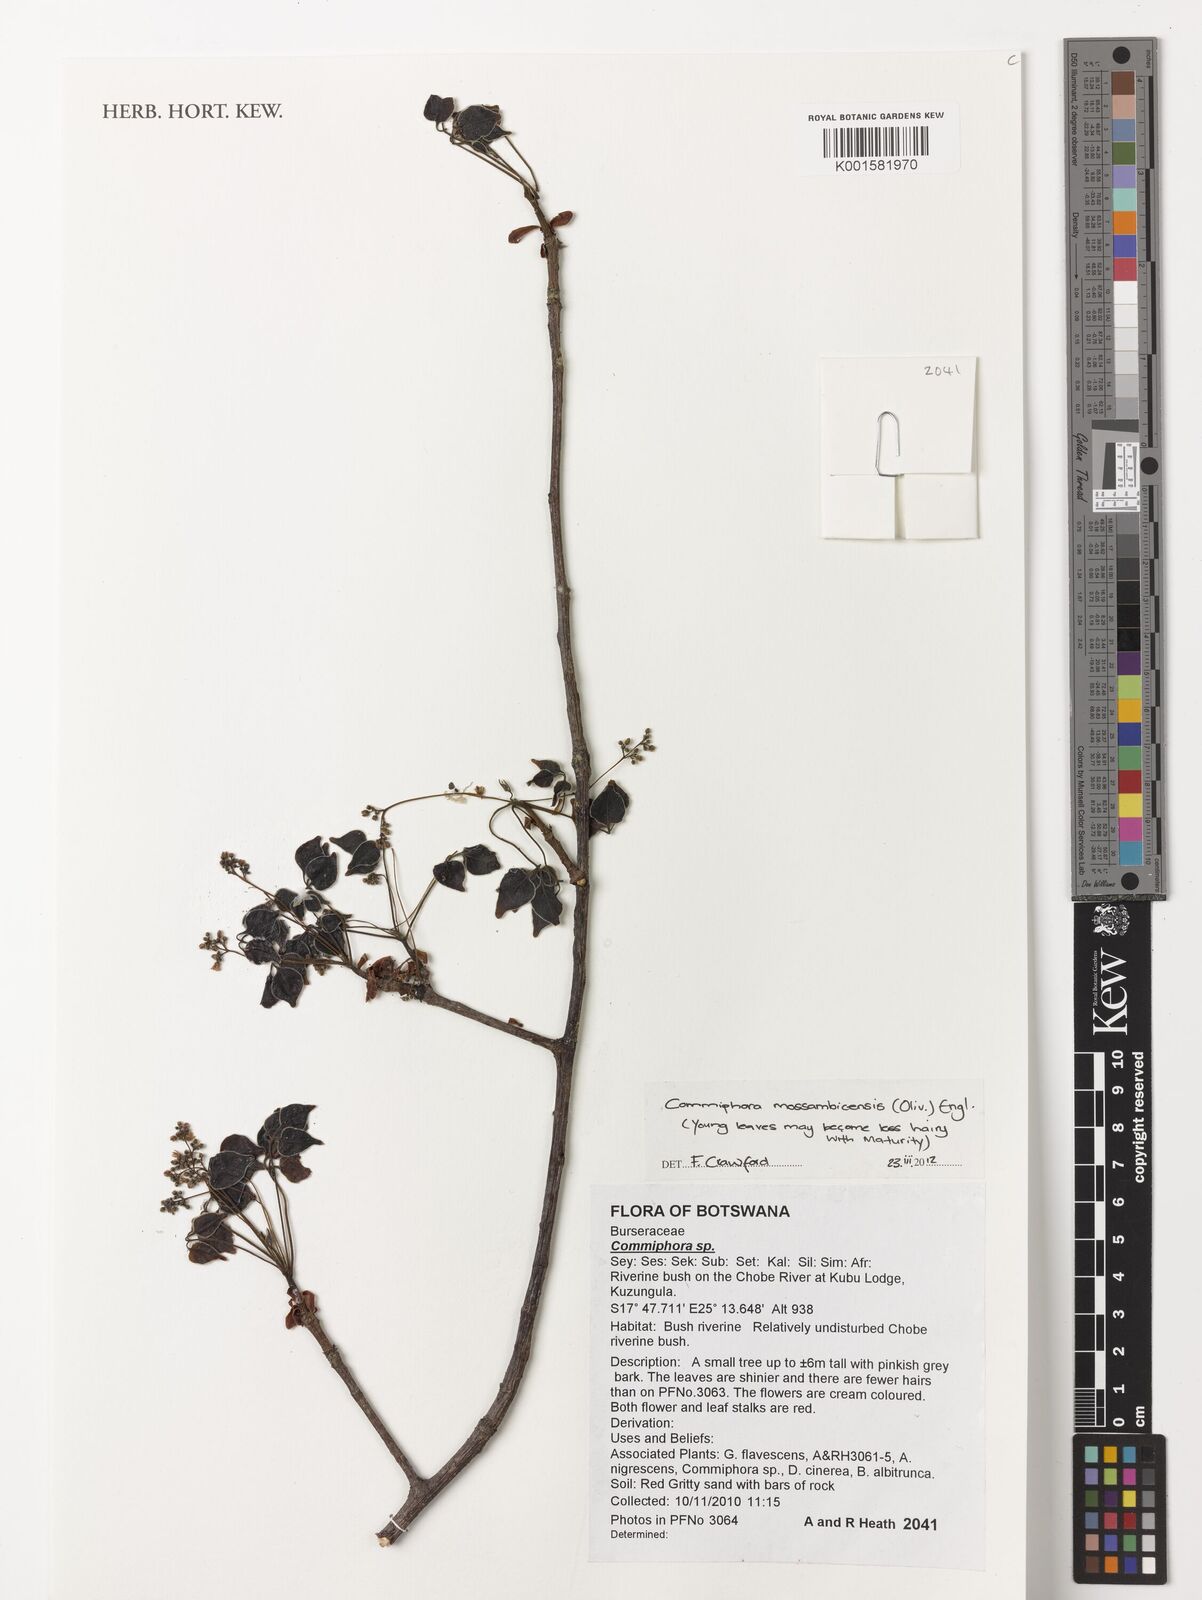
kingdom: Plantae
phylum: Tracheophyta
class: Magnoliopsida
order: Sapindales
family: Burseraceae
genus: Commiphora
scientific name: Commiphora
